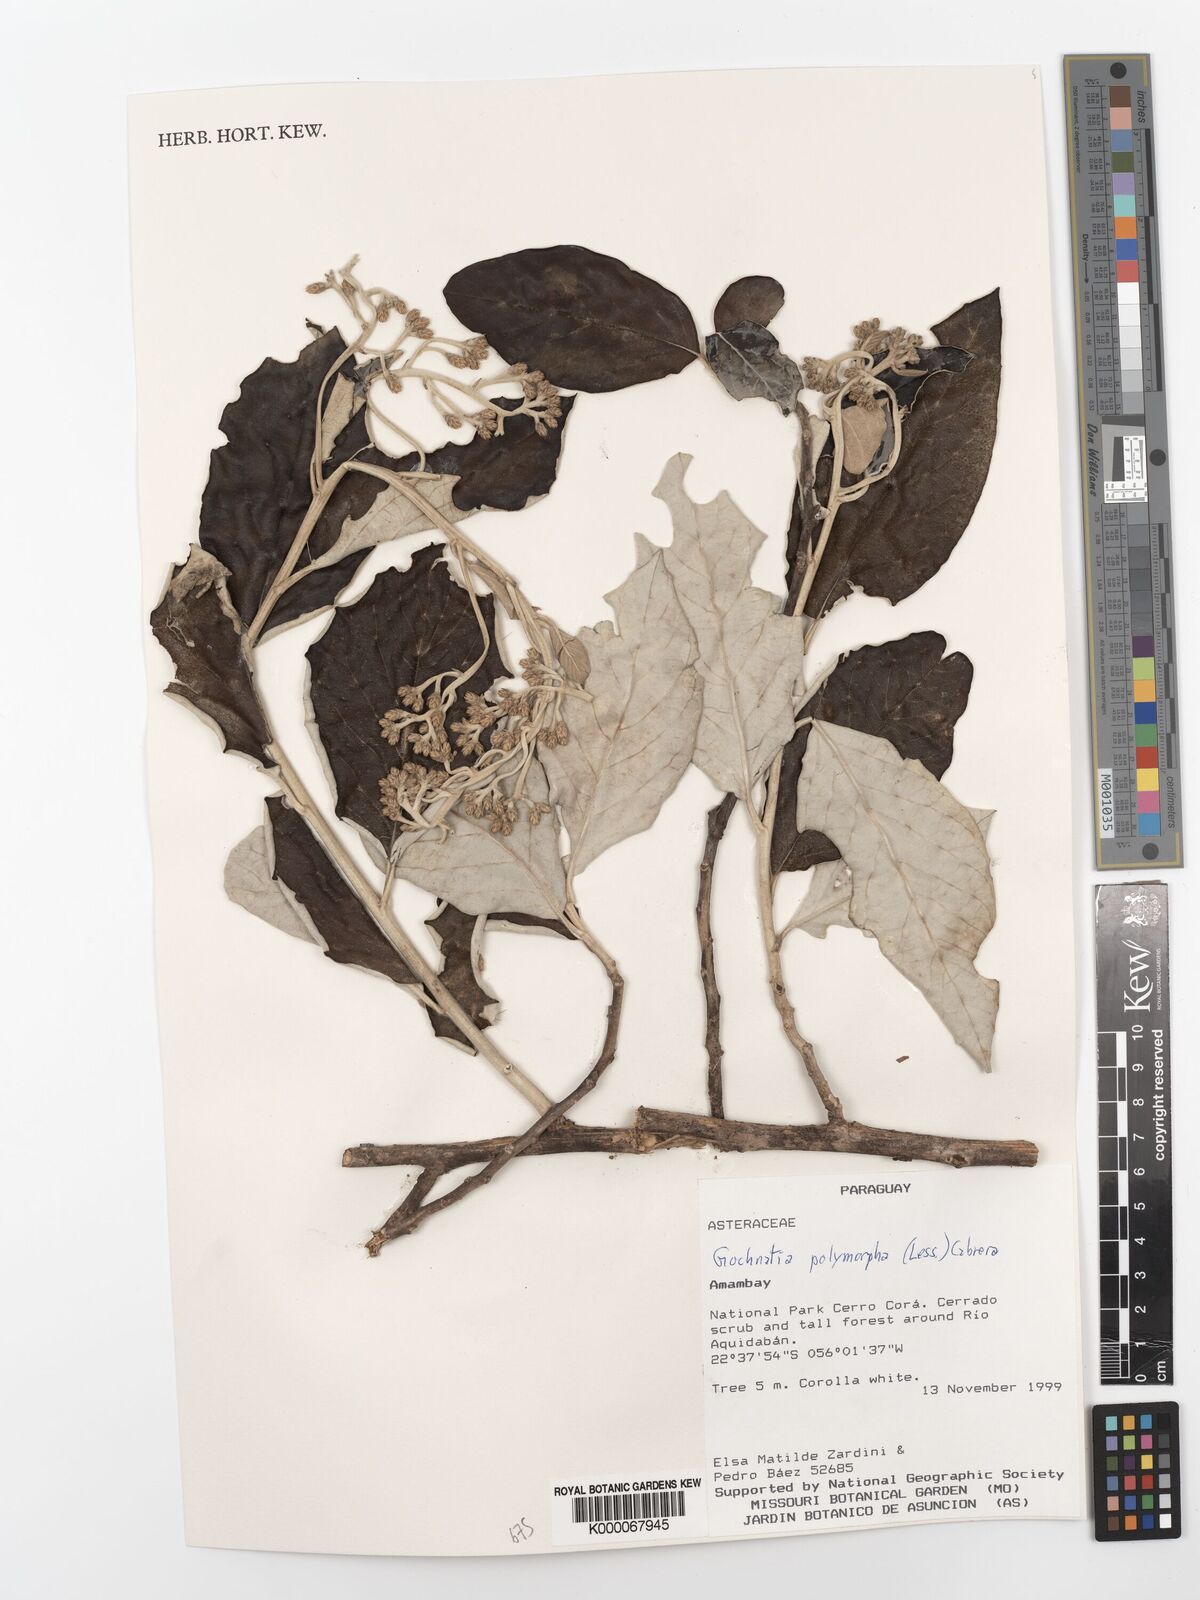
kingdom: Plantae
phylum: Tracheophyta
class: Magnoliopsida
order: Asterales
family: Asteraceae
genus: Moquiniastrum
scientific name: Moquiniastrum polymorphum
